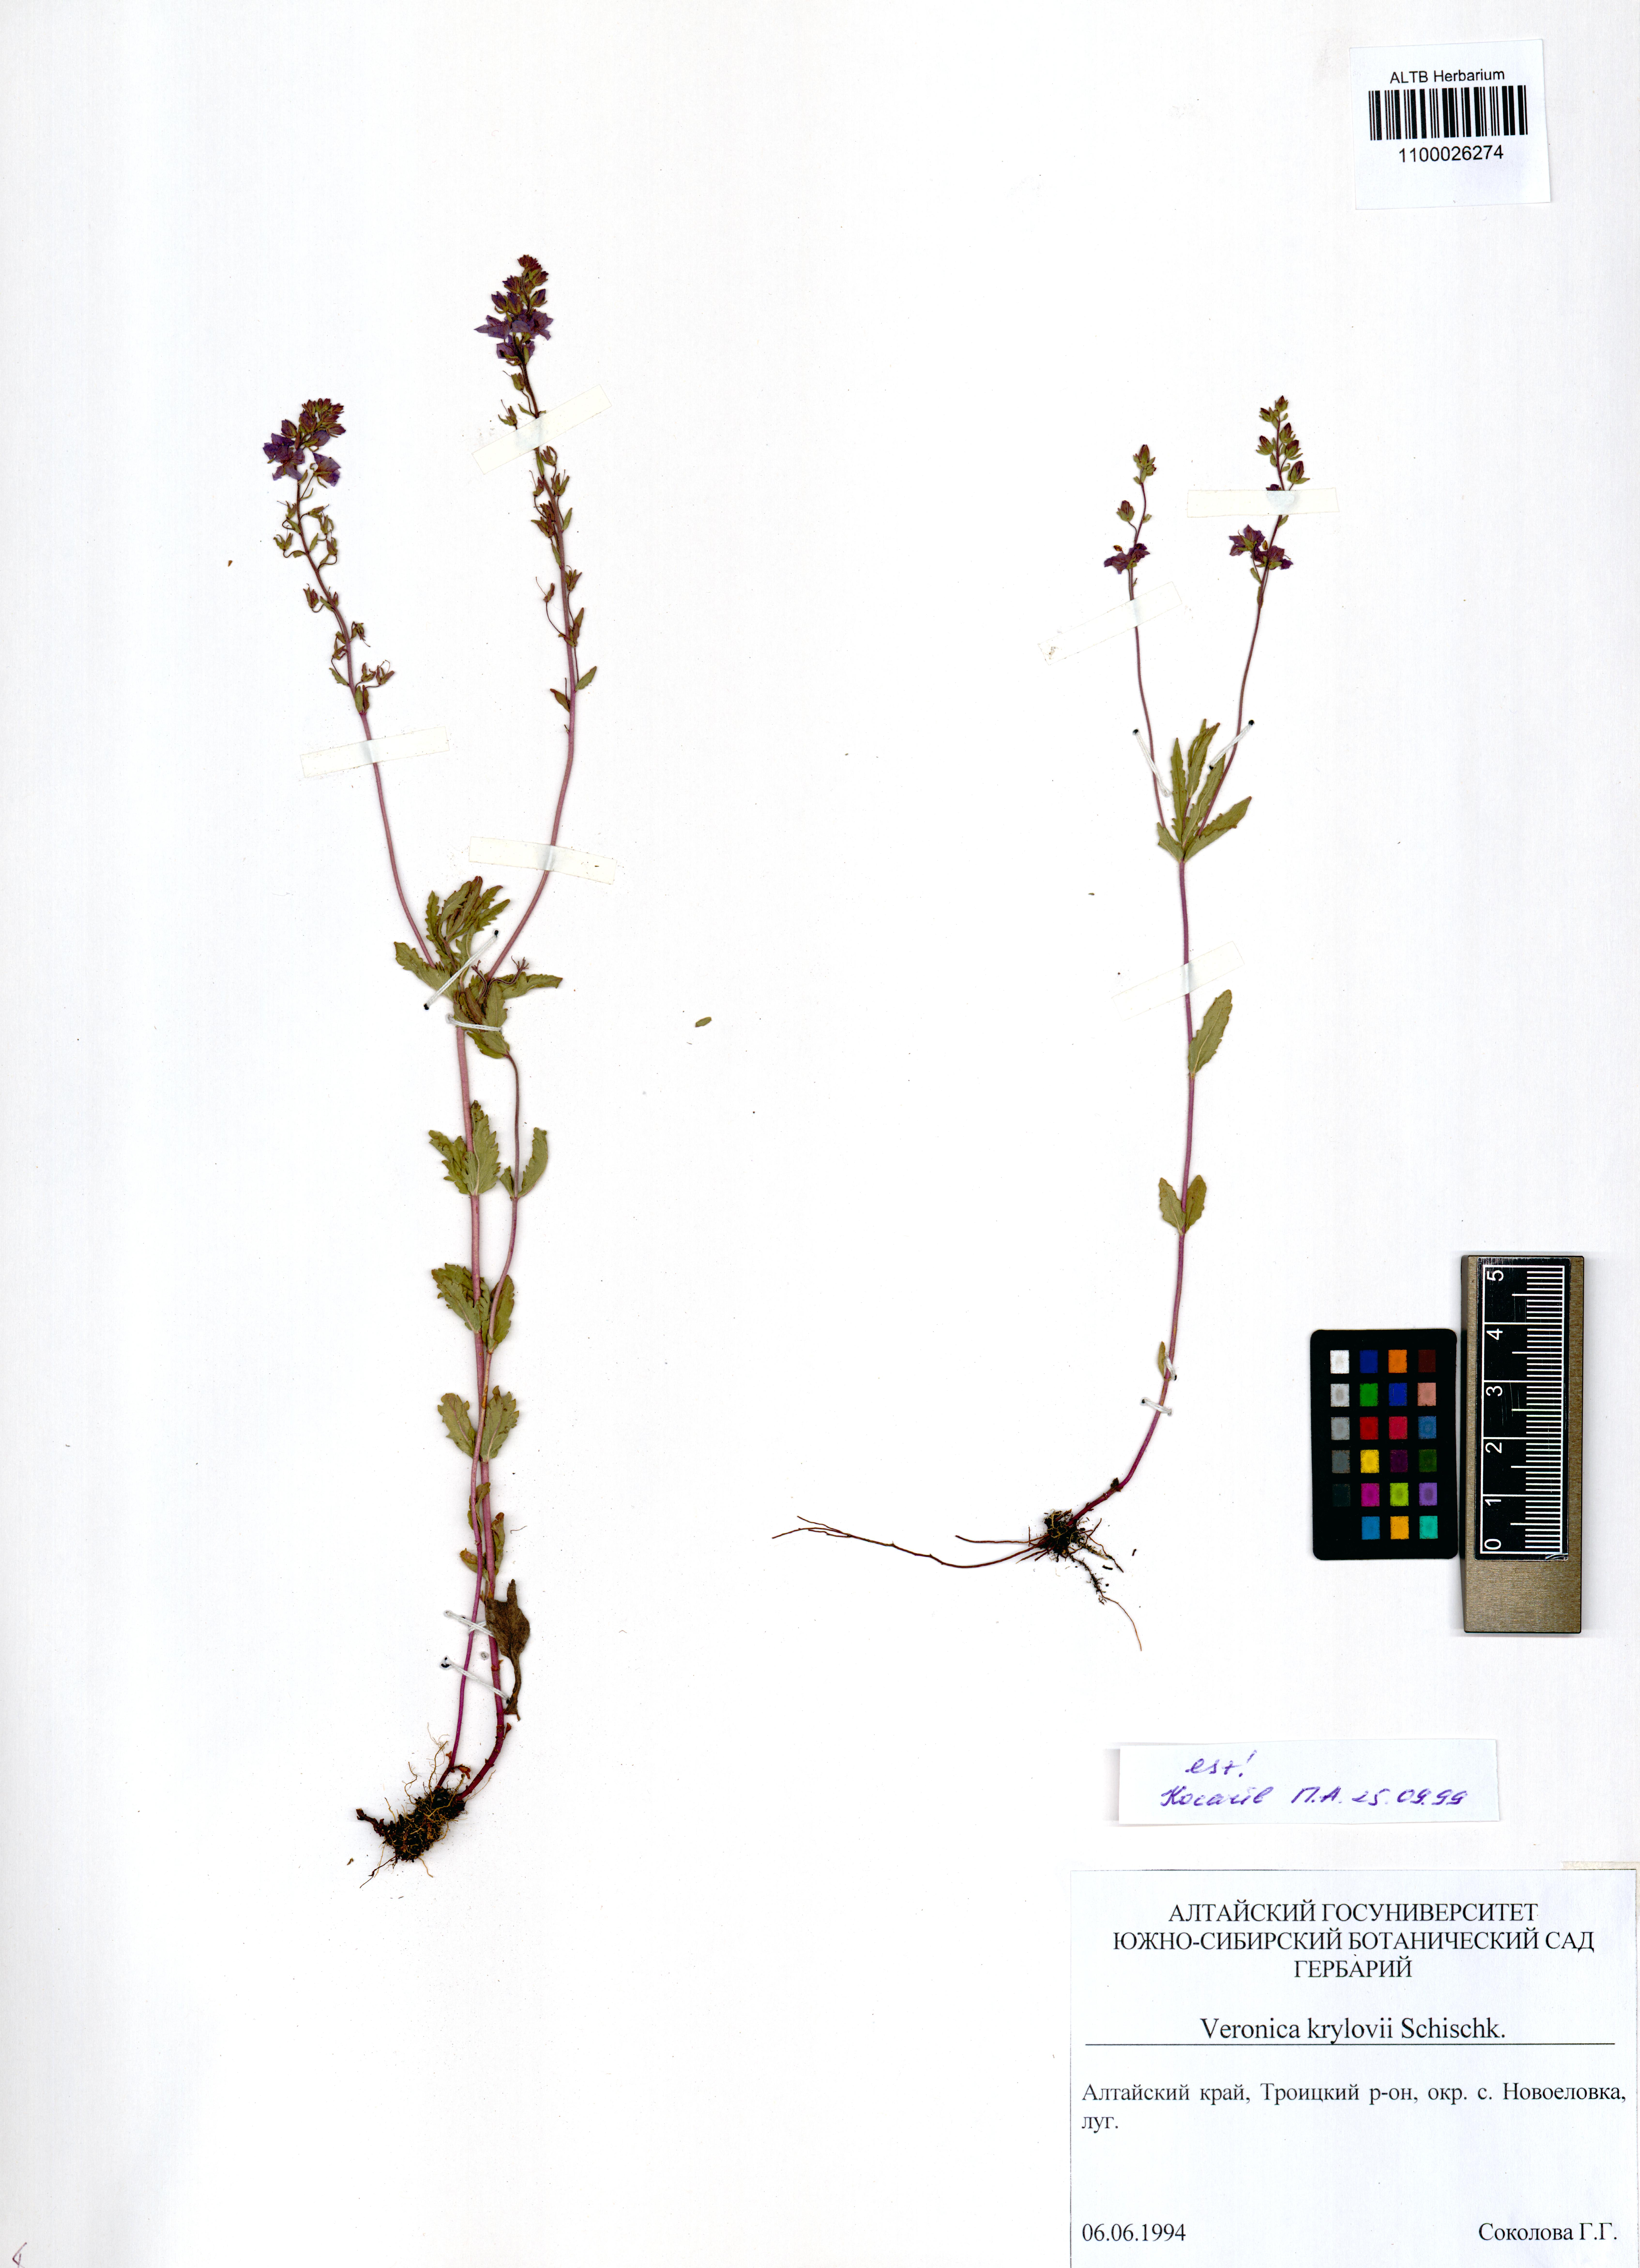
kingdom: Plantae
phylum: Tracheophyta
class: Magnoliopsida
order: Lamiales
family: Plantaginaceae
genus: Veronica
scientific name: Veronica krylovii
